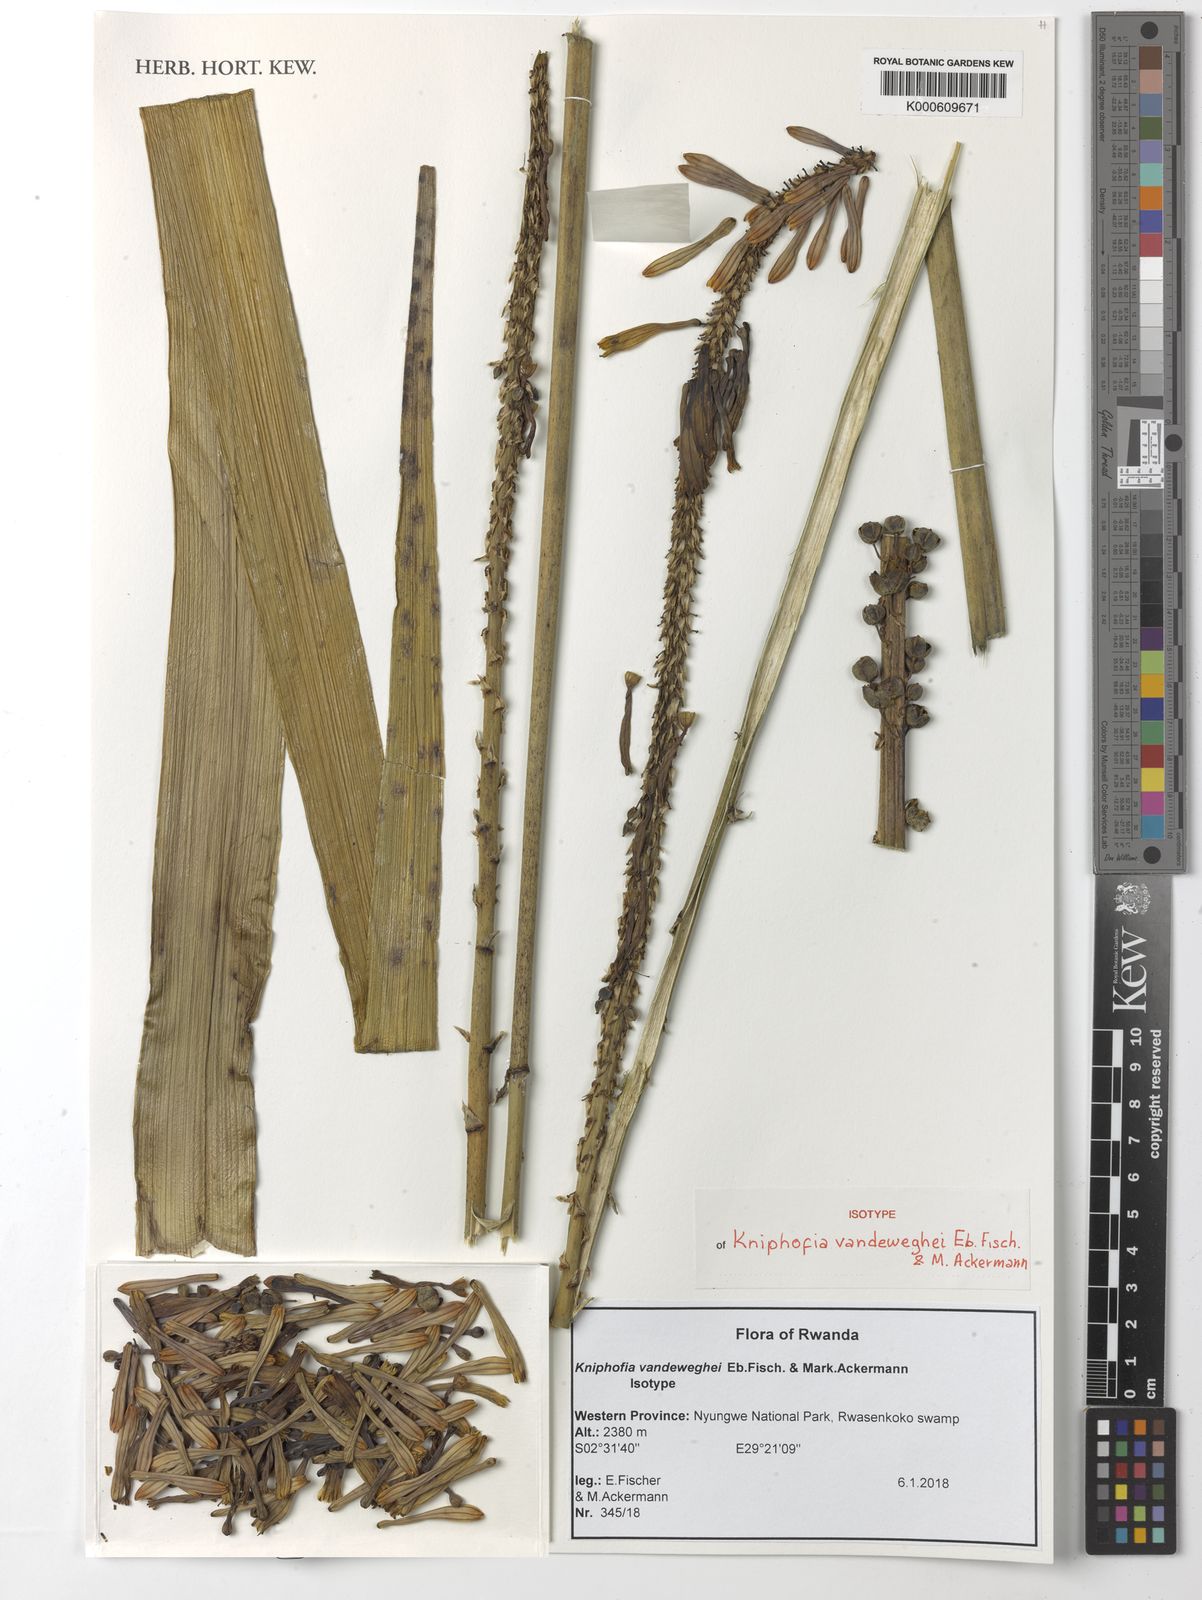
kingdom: Plantae
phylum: Tracheophyta
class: Liliopsida
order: Asparagales
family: Asphodelaceae
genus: Kniphofia
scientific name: Kniphofia vandeweghei
